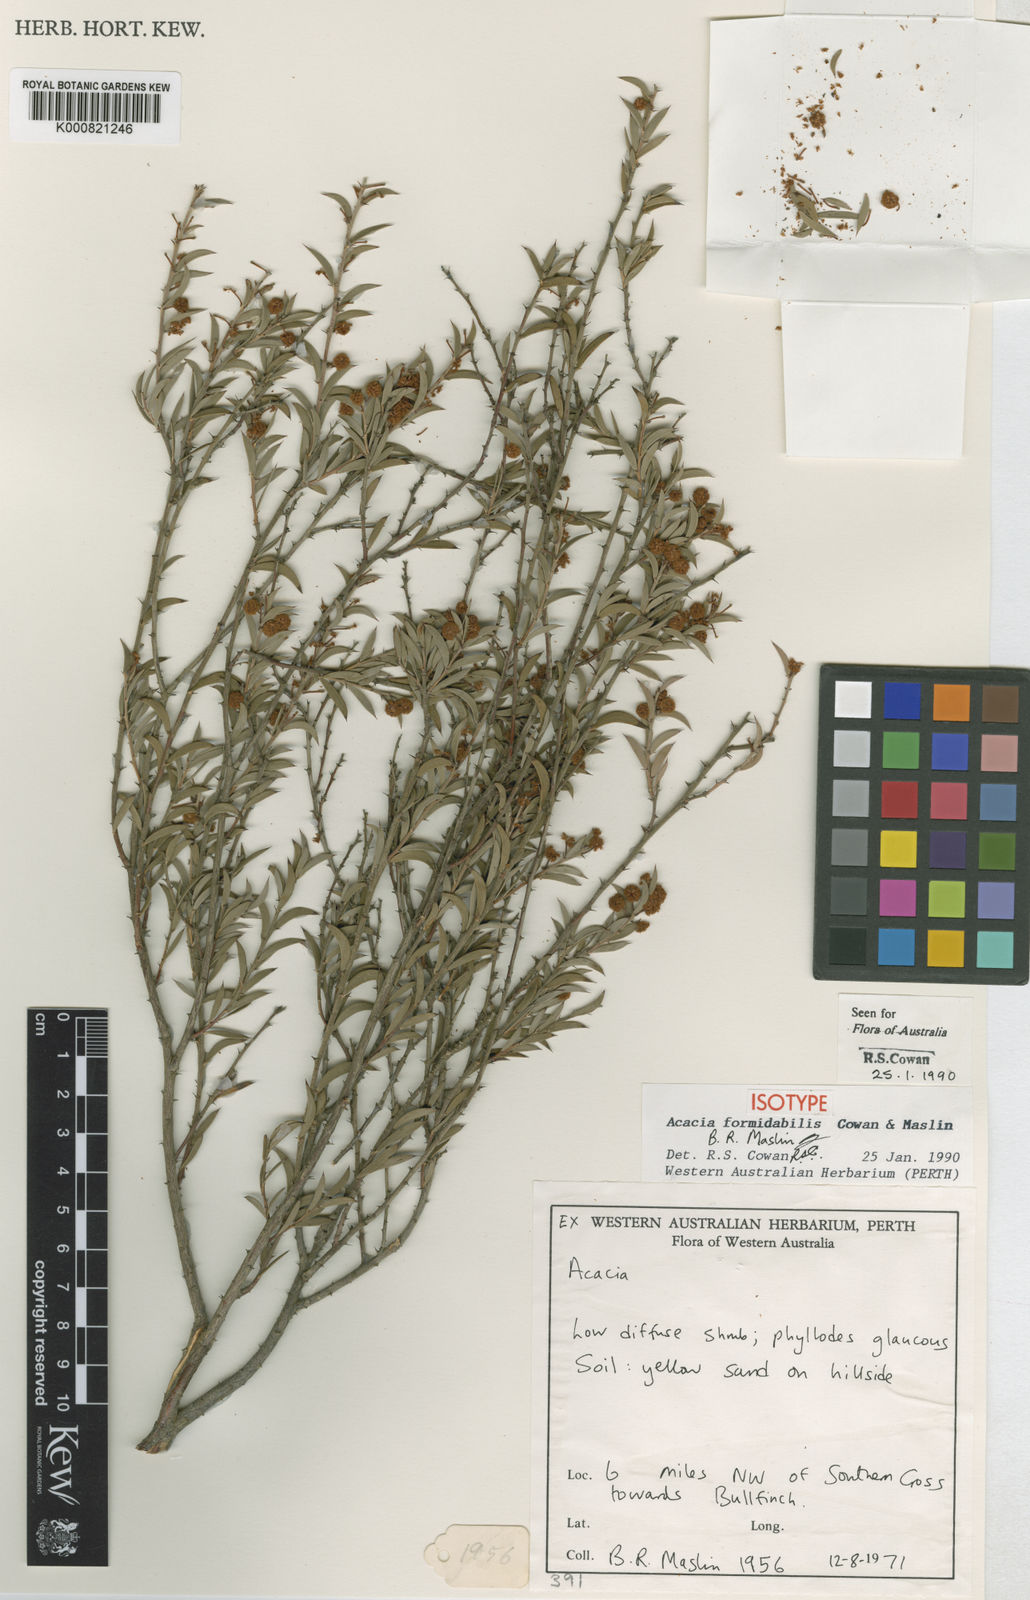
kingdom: Plantae
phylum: Tracheophyta
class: Magnoliopsida
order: Fabales
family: Fabaceae
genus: Acacia
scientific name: Acacia formidabilis
